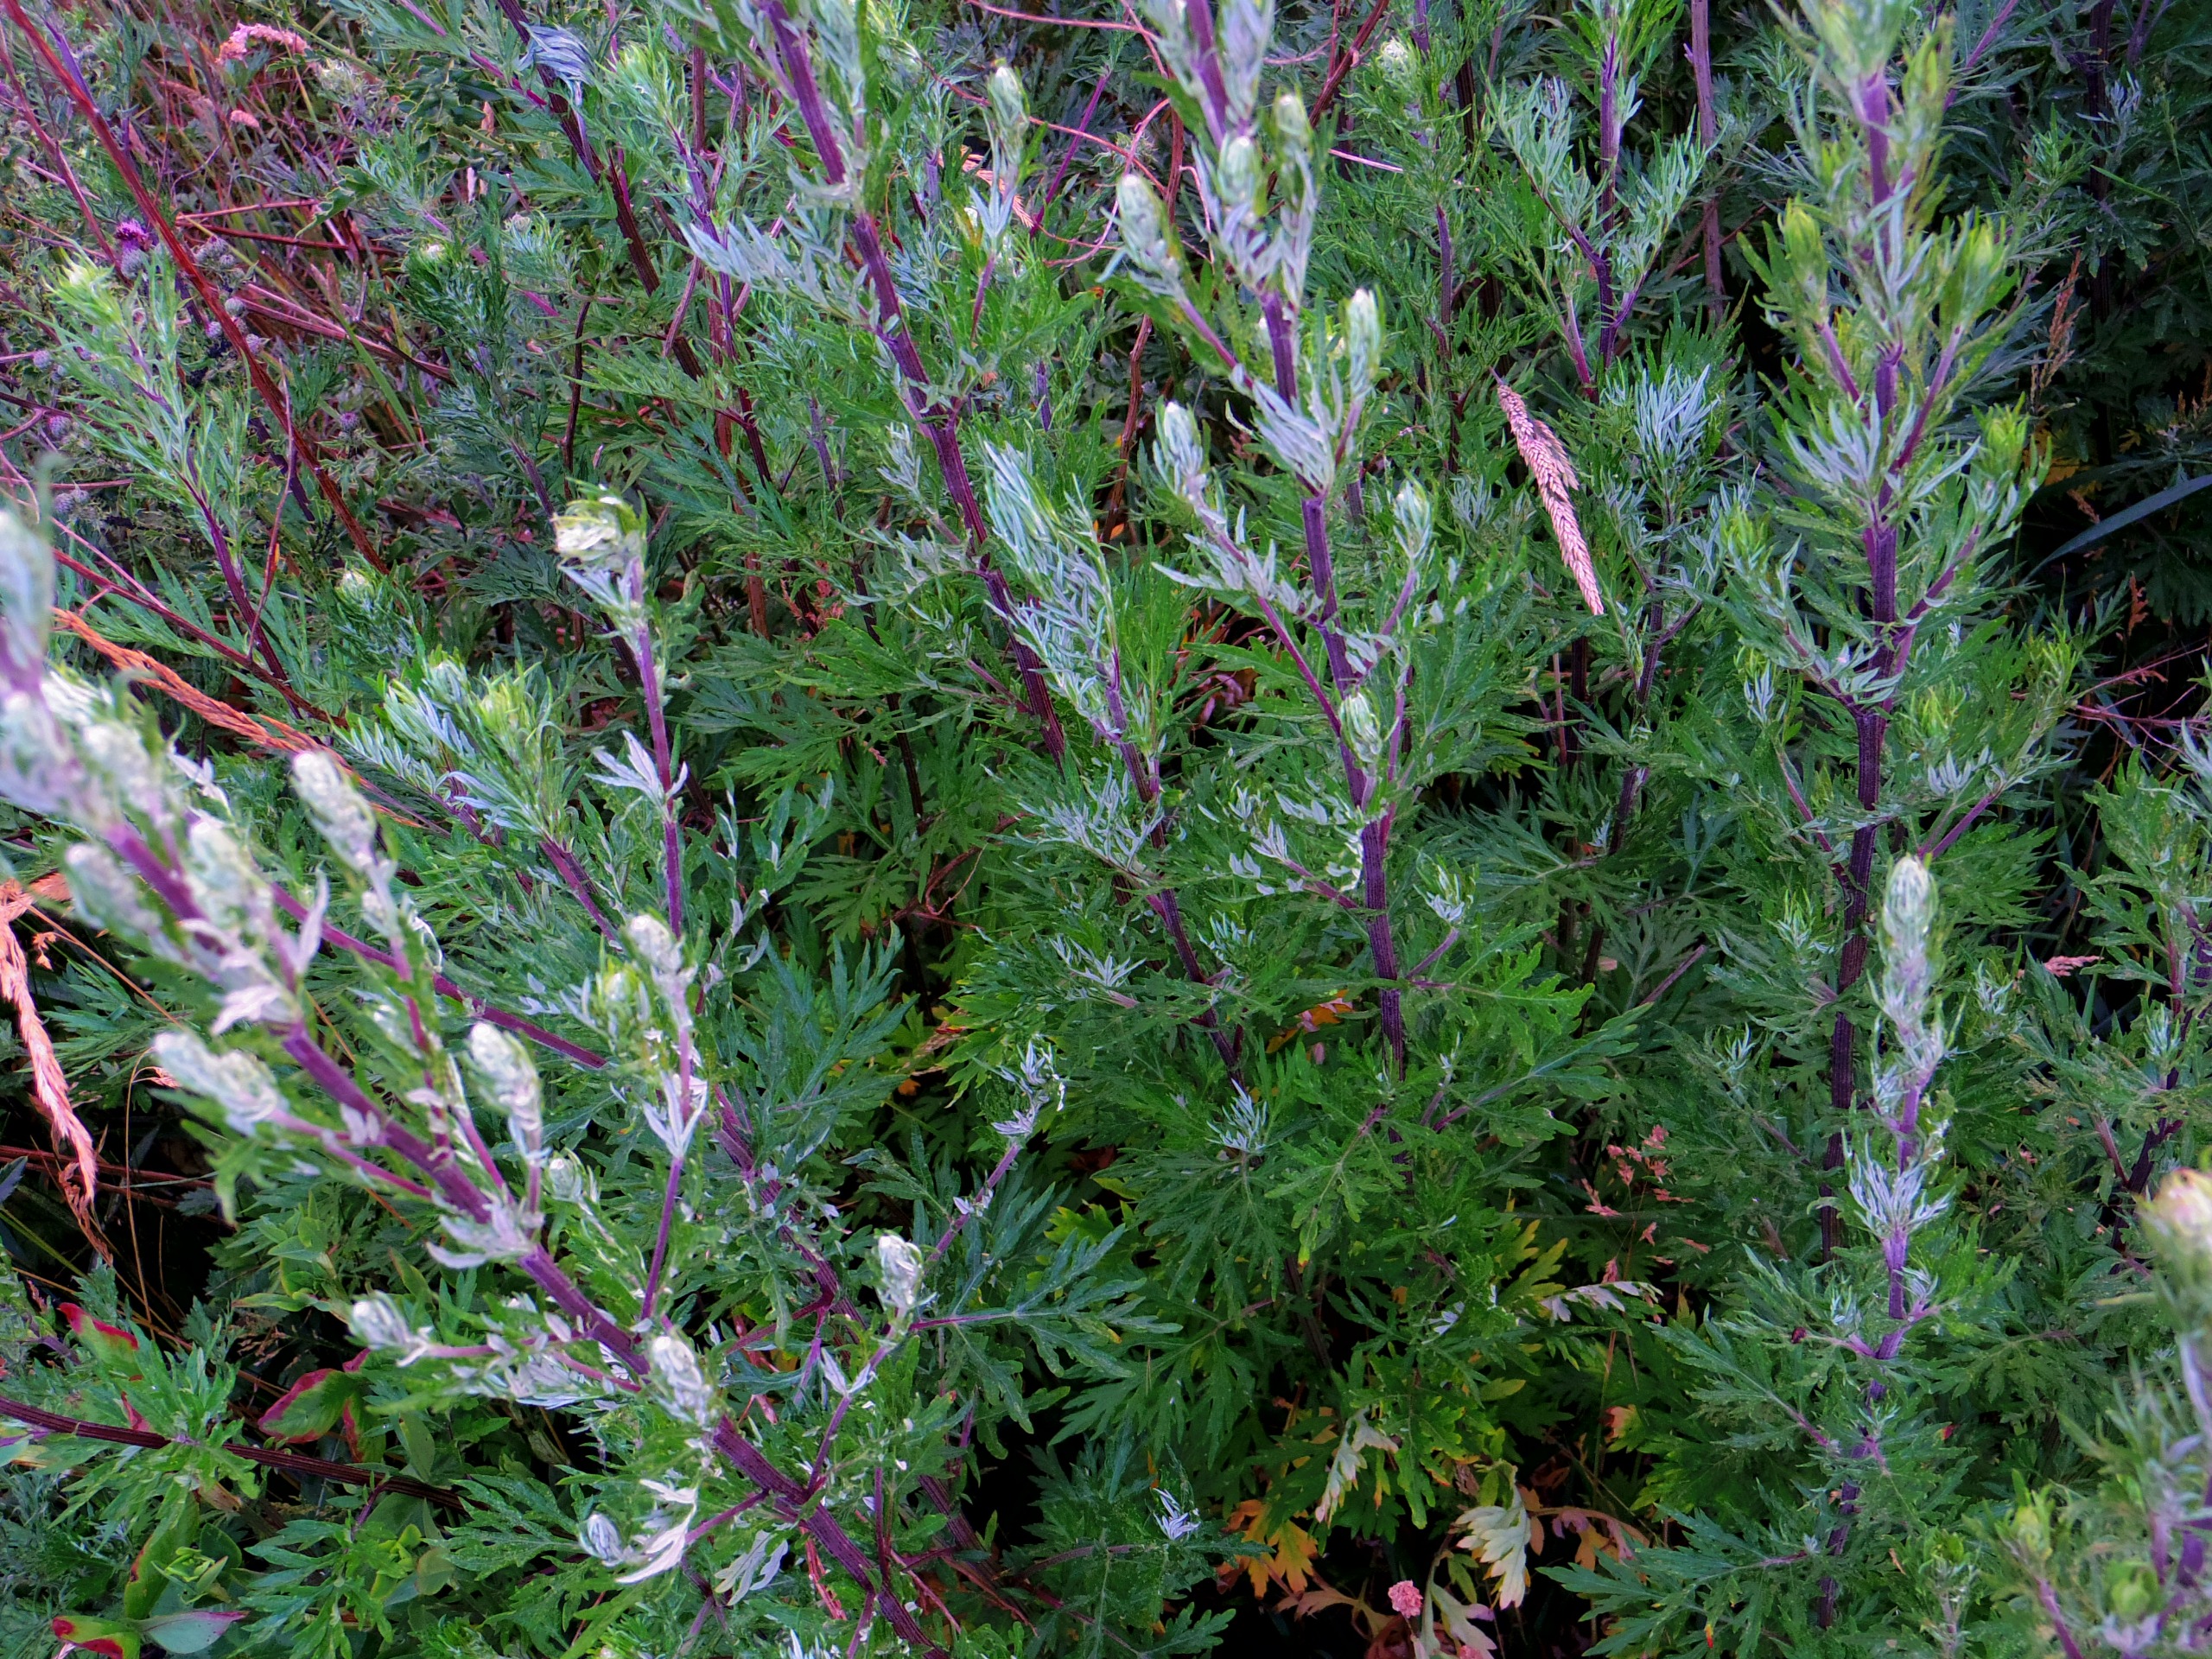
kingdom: Plantae
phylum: Tracheophyta
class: Magnoliopsida
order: Asterales
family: Asteraceae
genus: Artemisia
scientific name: Artemisia vulgaris
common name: Grå-bynke
